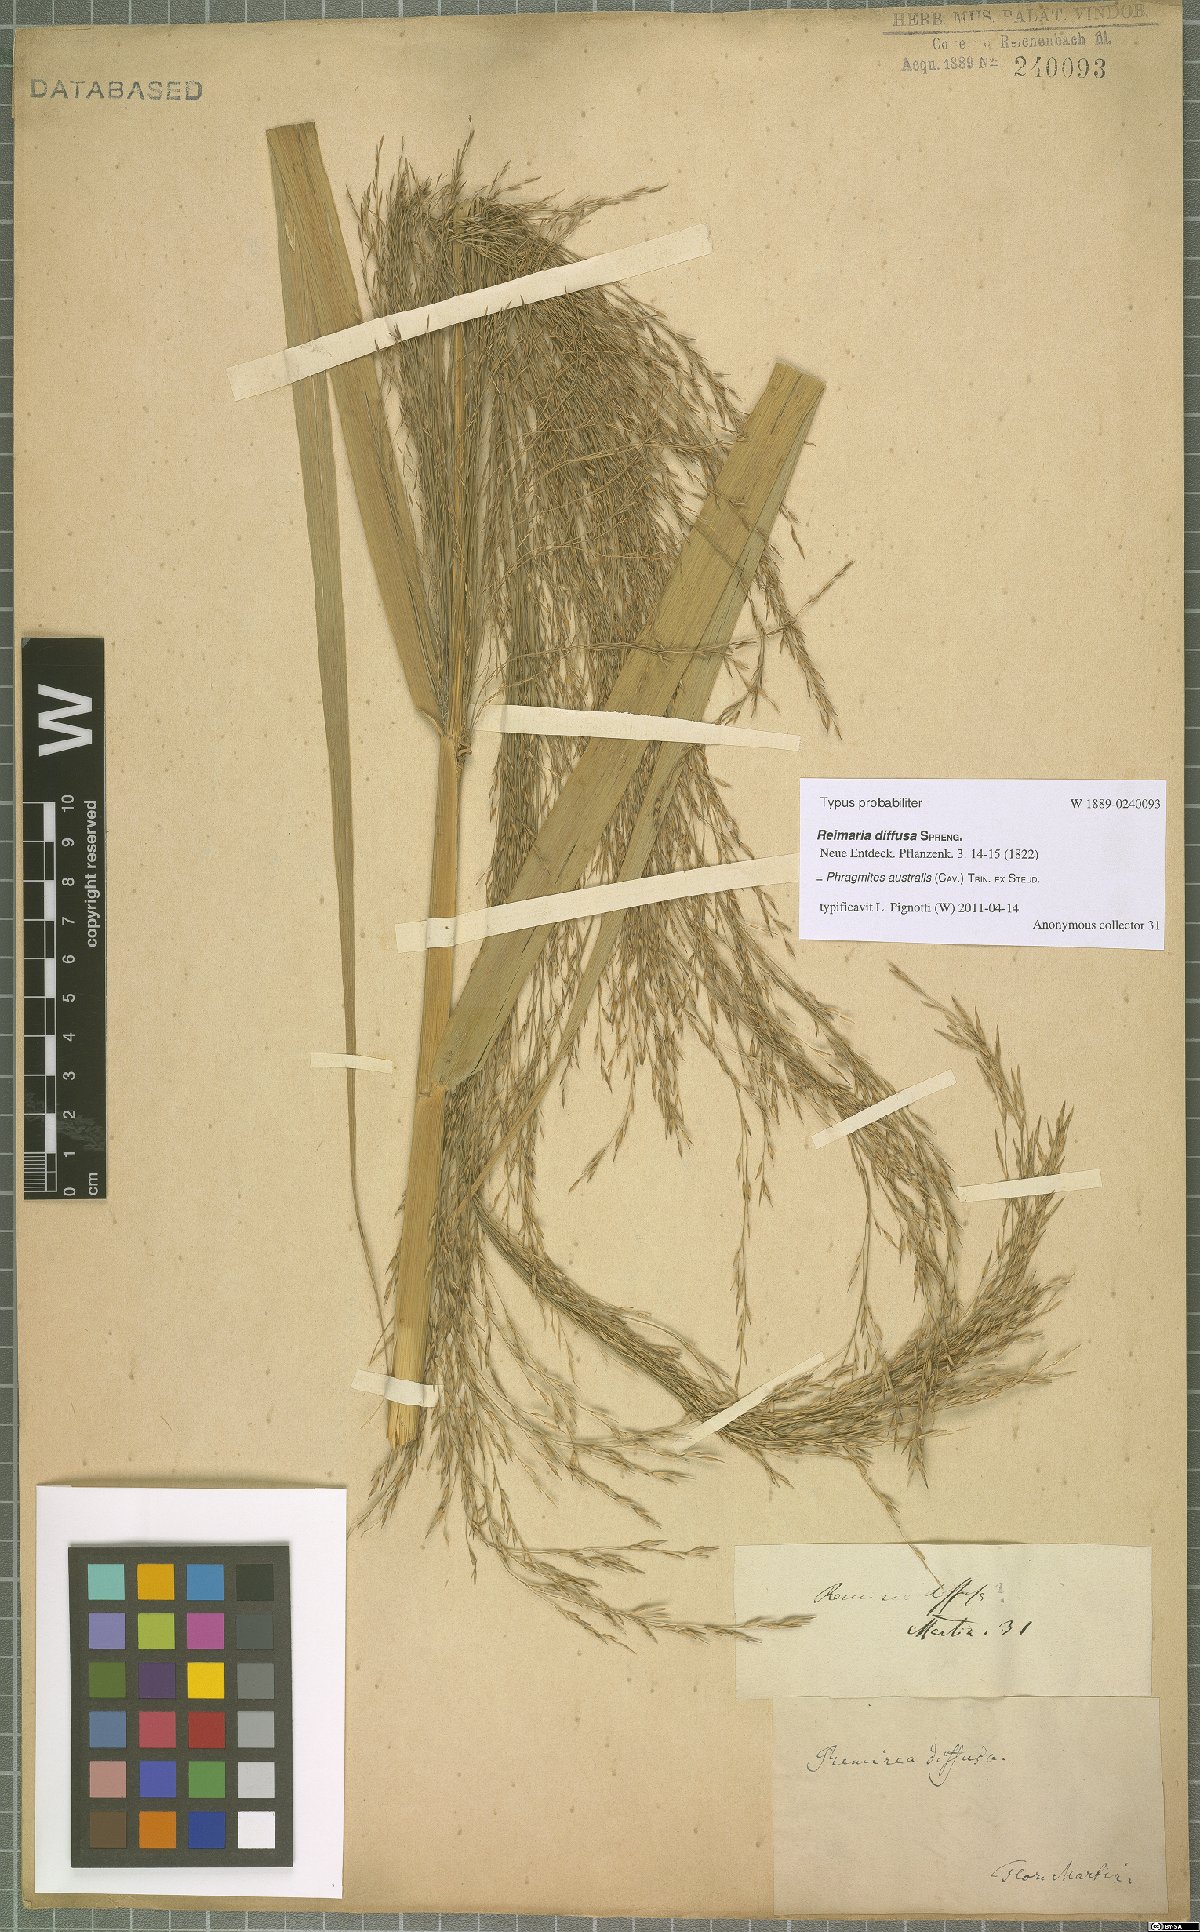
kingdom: Plantae
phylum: Tracheophyta
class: Liliopsida
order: Poales
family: Poaceae
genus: Phragmites
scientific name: Phragmites australis
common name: Common reed
